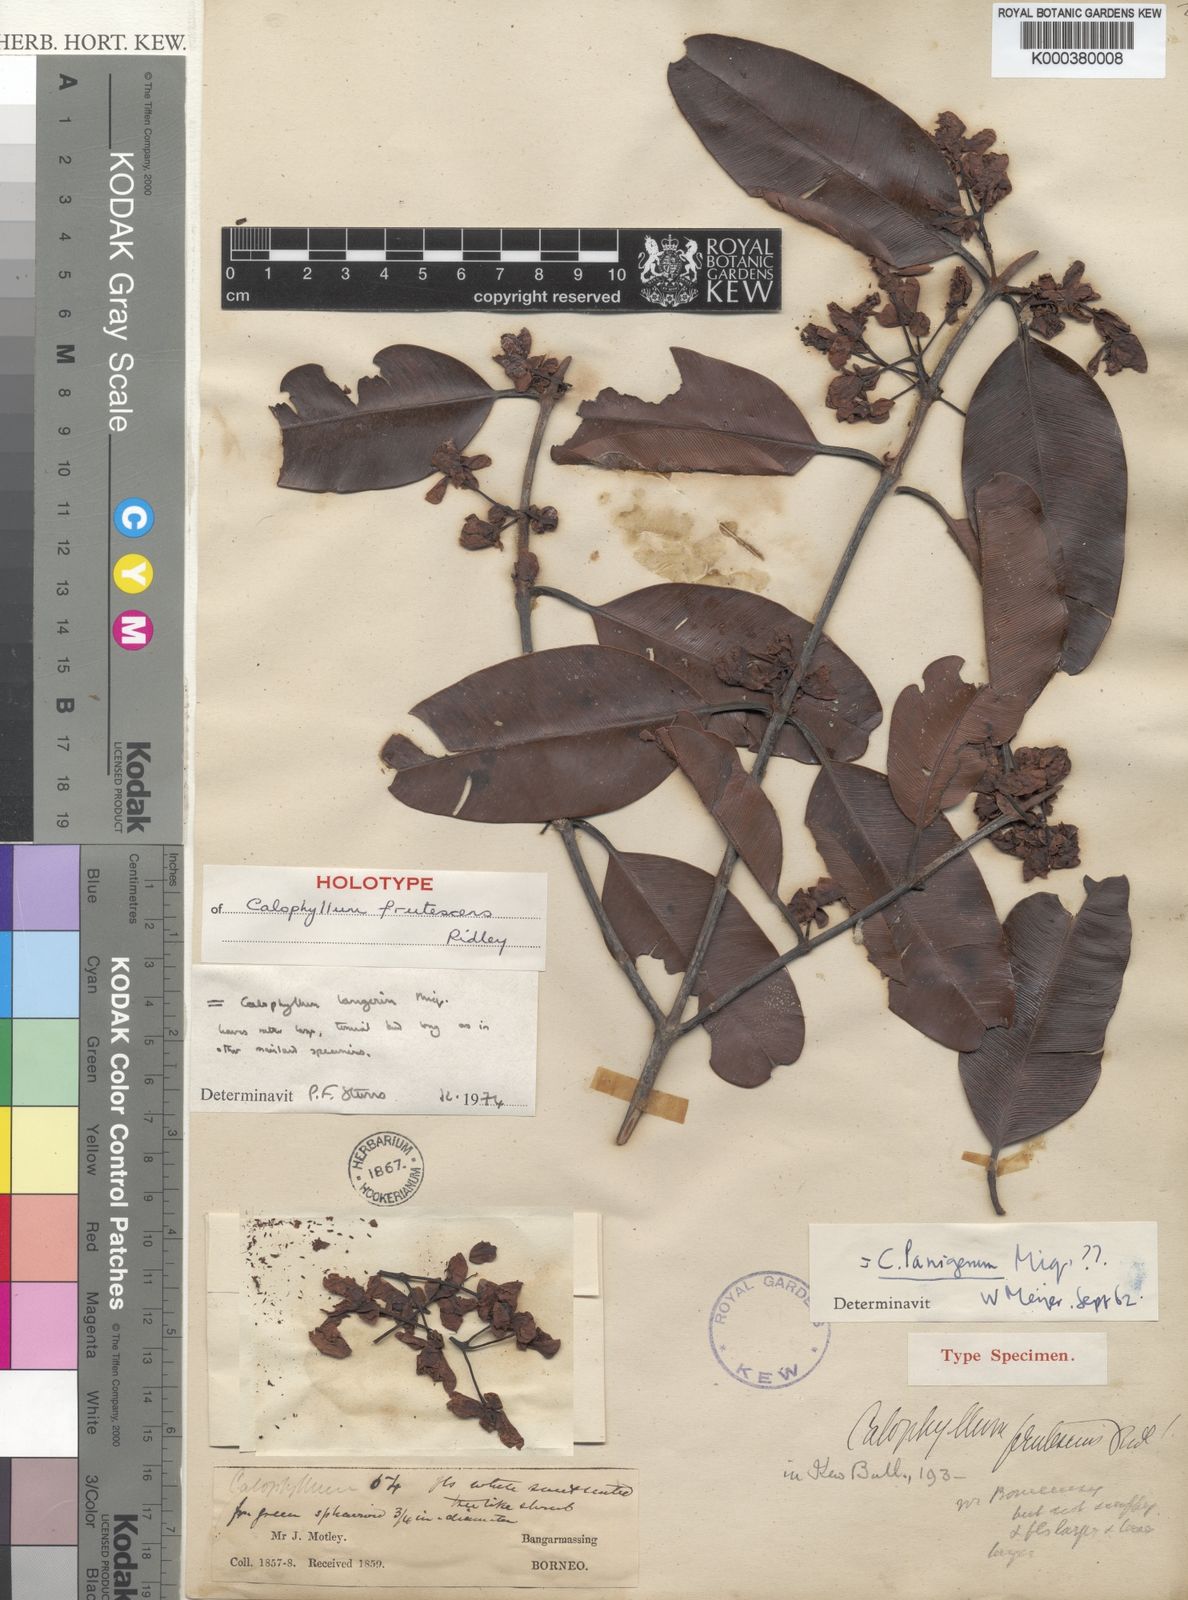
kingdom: Plantae
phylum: Tracheophyta
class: Magnoliopsida
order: Malpighiales
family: Calophyllaceae
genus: Calophyllum
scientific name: Calophyllum lanigerum
